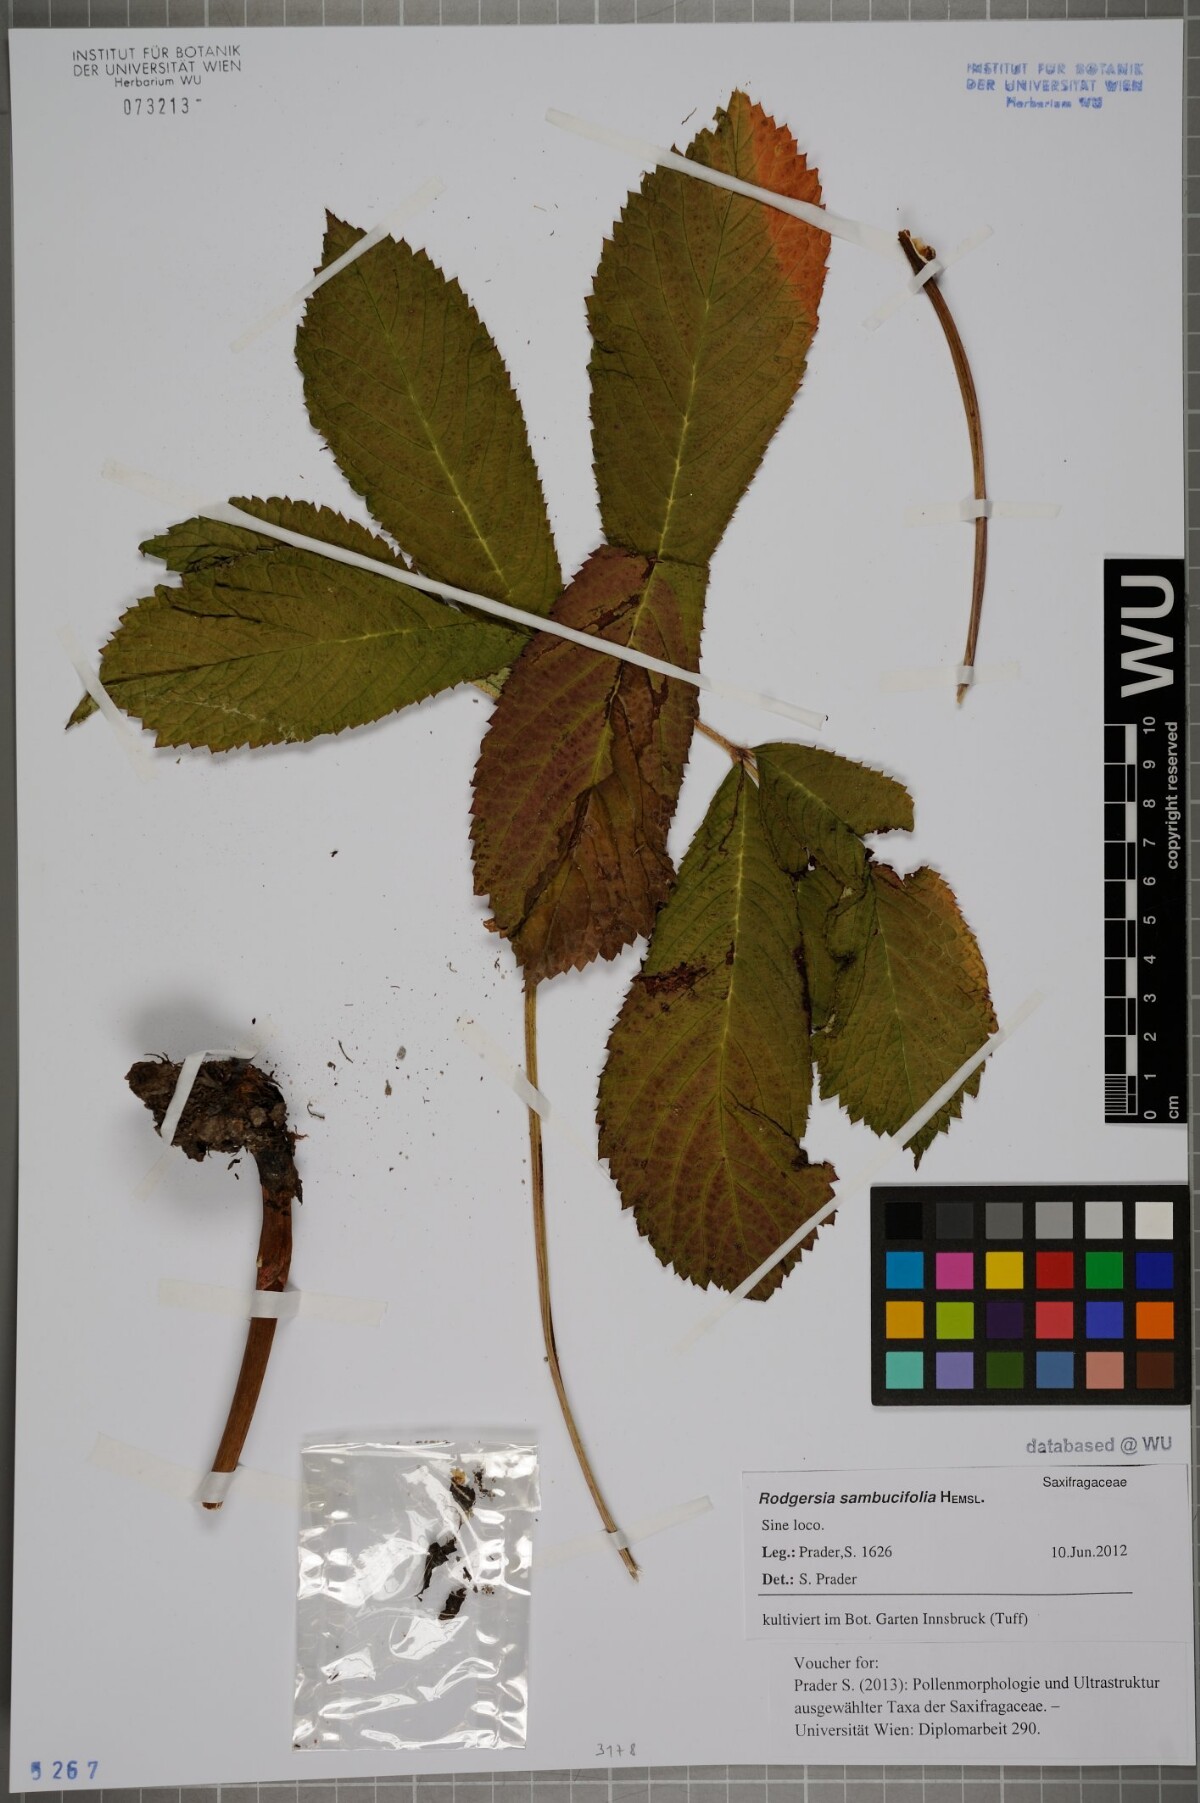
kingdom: Plantae
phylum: Tracheophyta
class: Magnoliopsida
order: Saxifragales
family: Saxifragaceae
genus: Rodgersia
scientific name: Rodgersia sambucifolia
